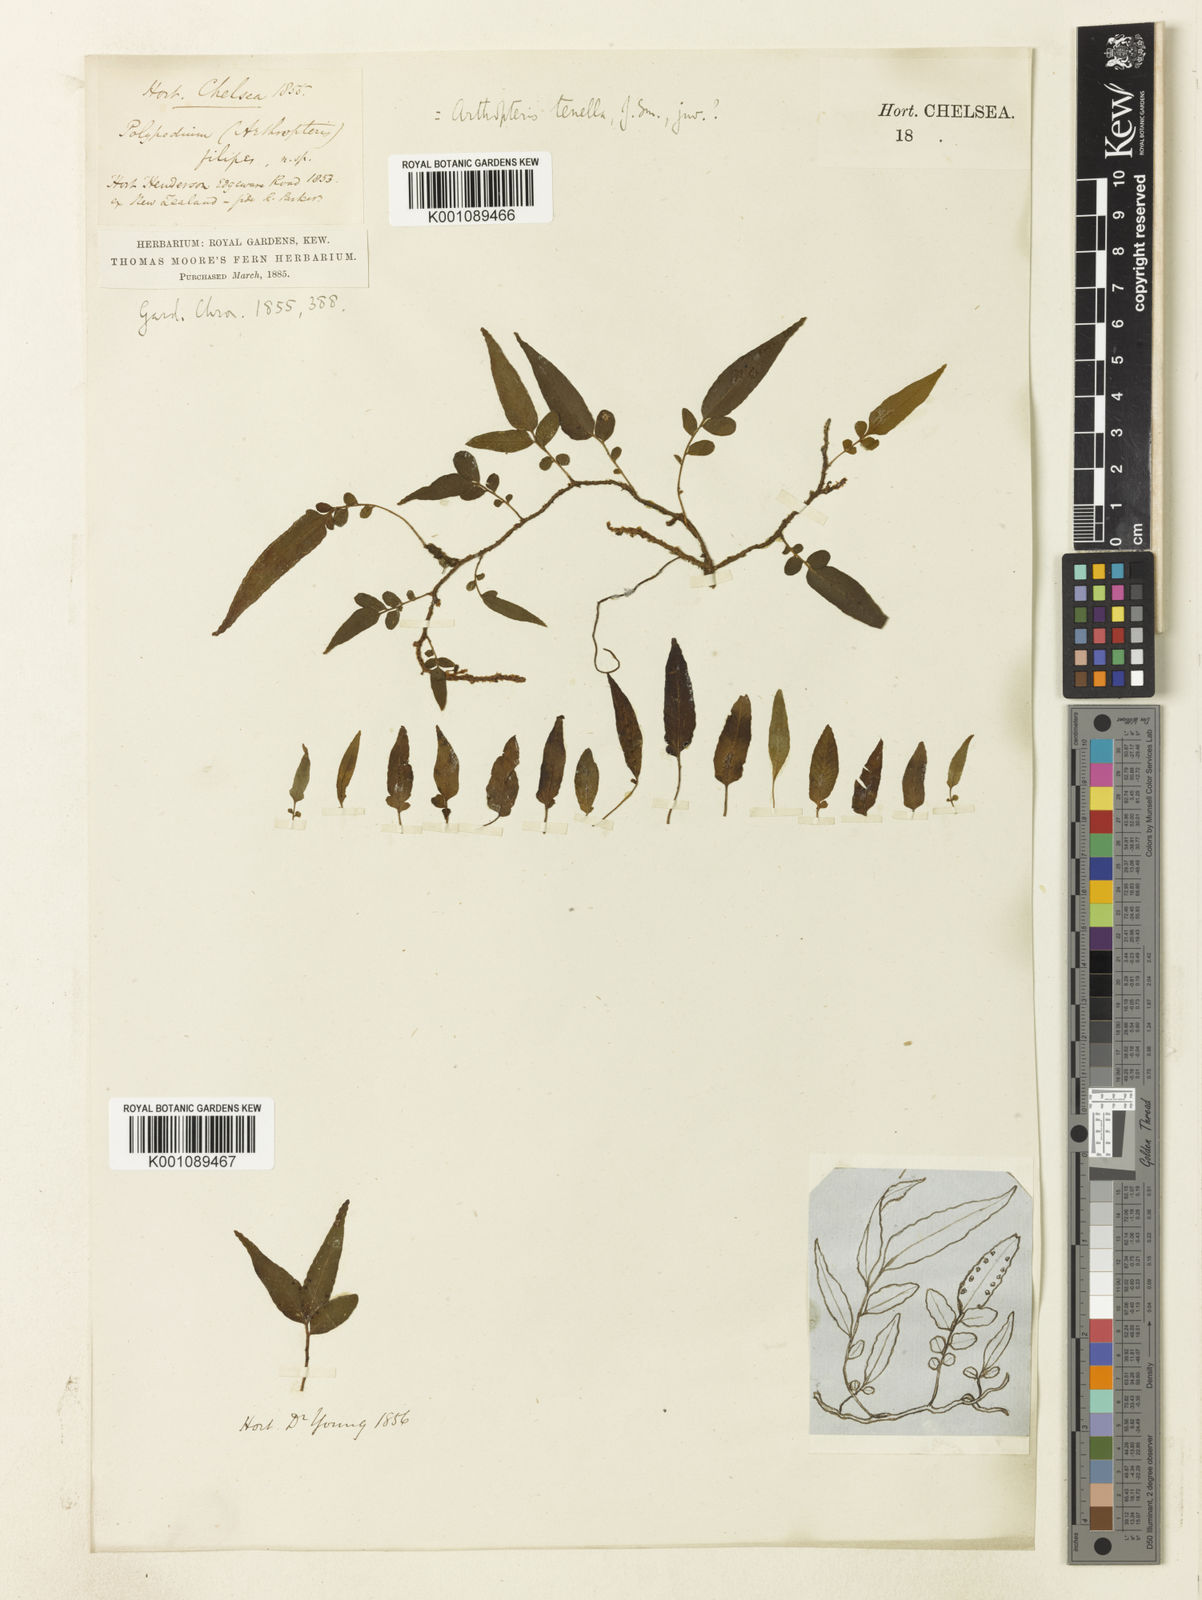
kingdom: Plantae
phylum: Tracheophyta
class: Polypodiopsida
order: Polypodiales
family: Tectariaceae
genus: Arthropteris
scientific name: Arthropteris
